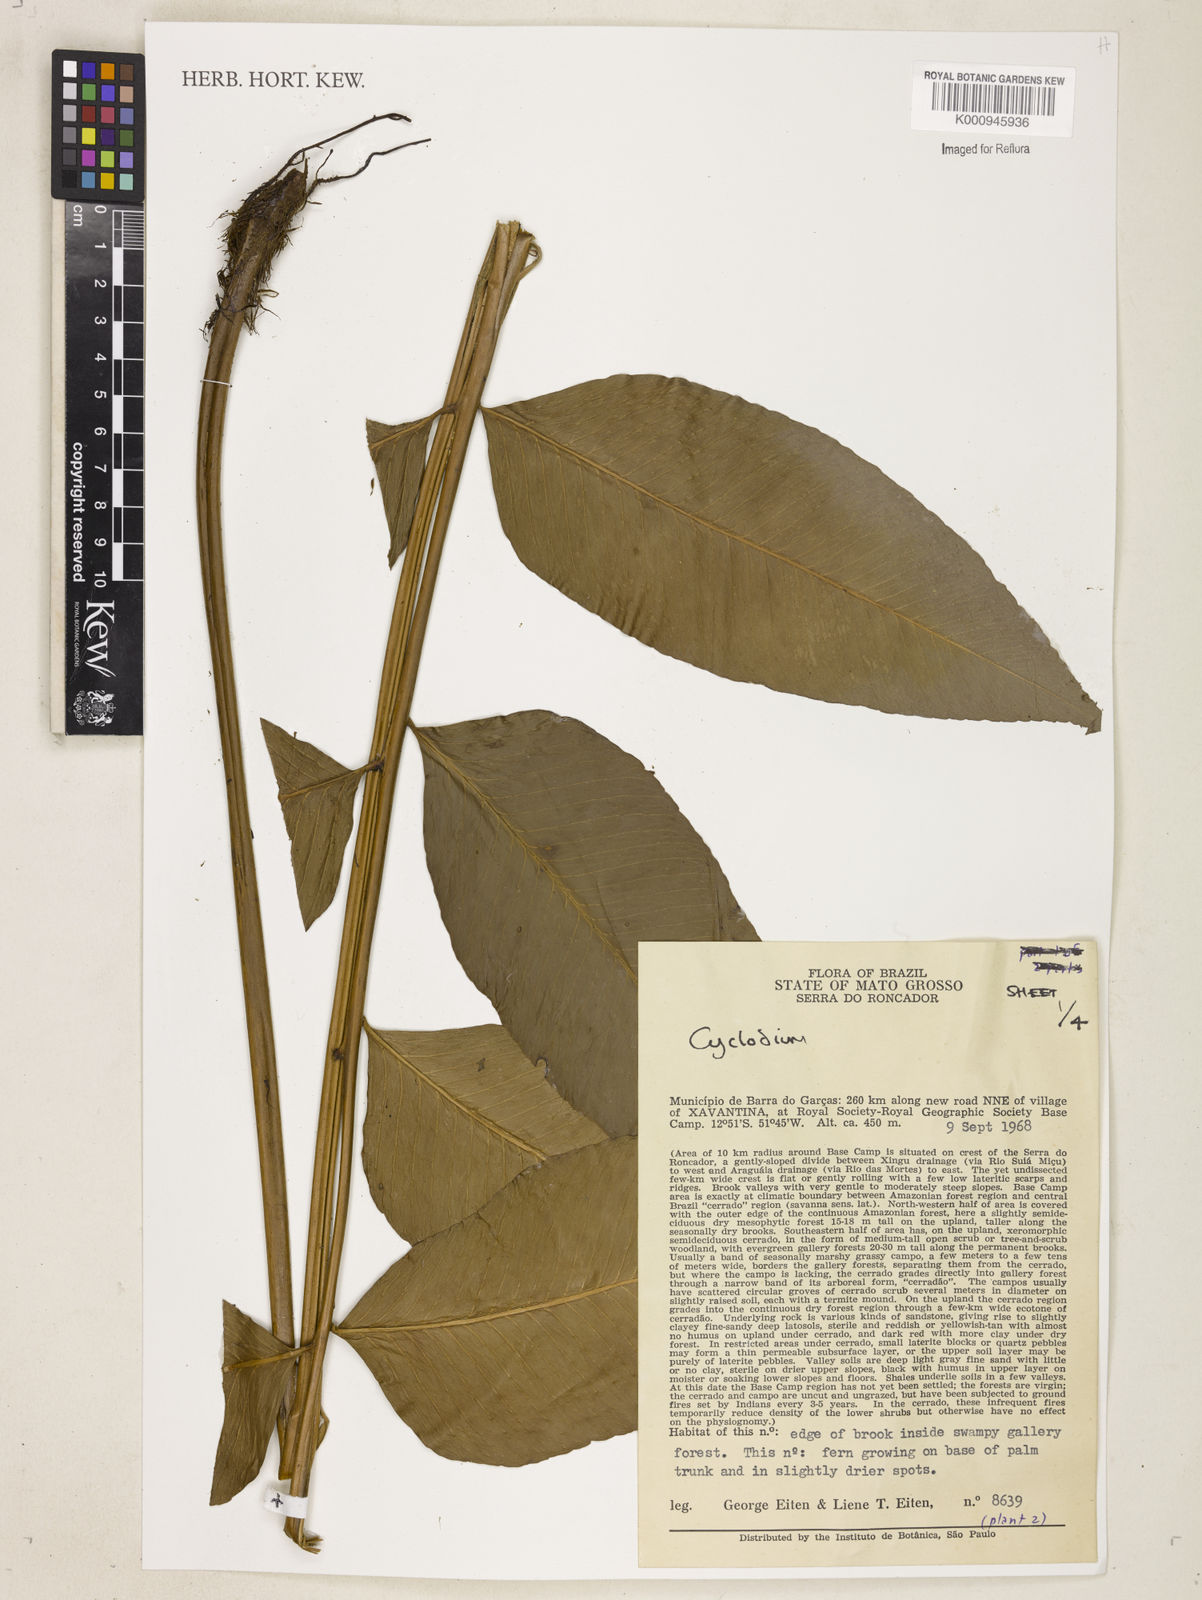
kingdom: Plantae
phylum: Tracheophyta
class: Polypodiopsida
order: Polypodiales
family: Dryopteridaceae
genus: Cyclodium
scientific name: Cyclodium meniscioides
